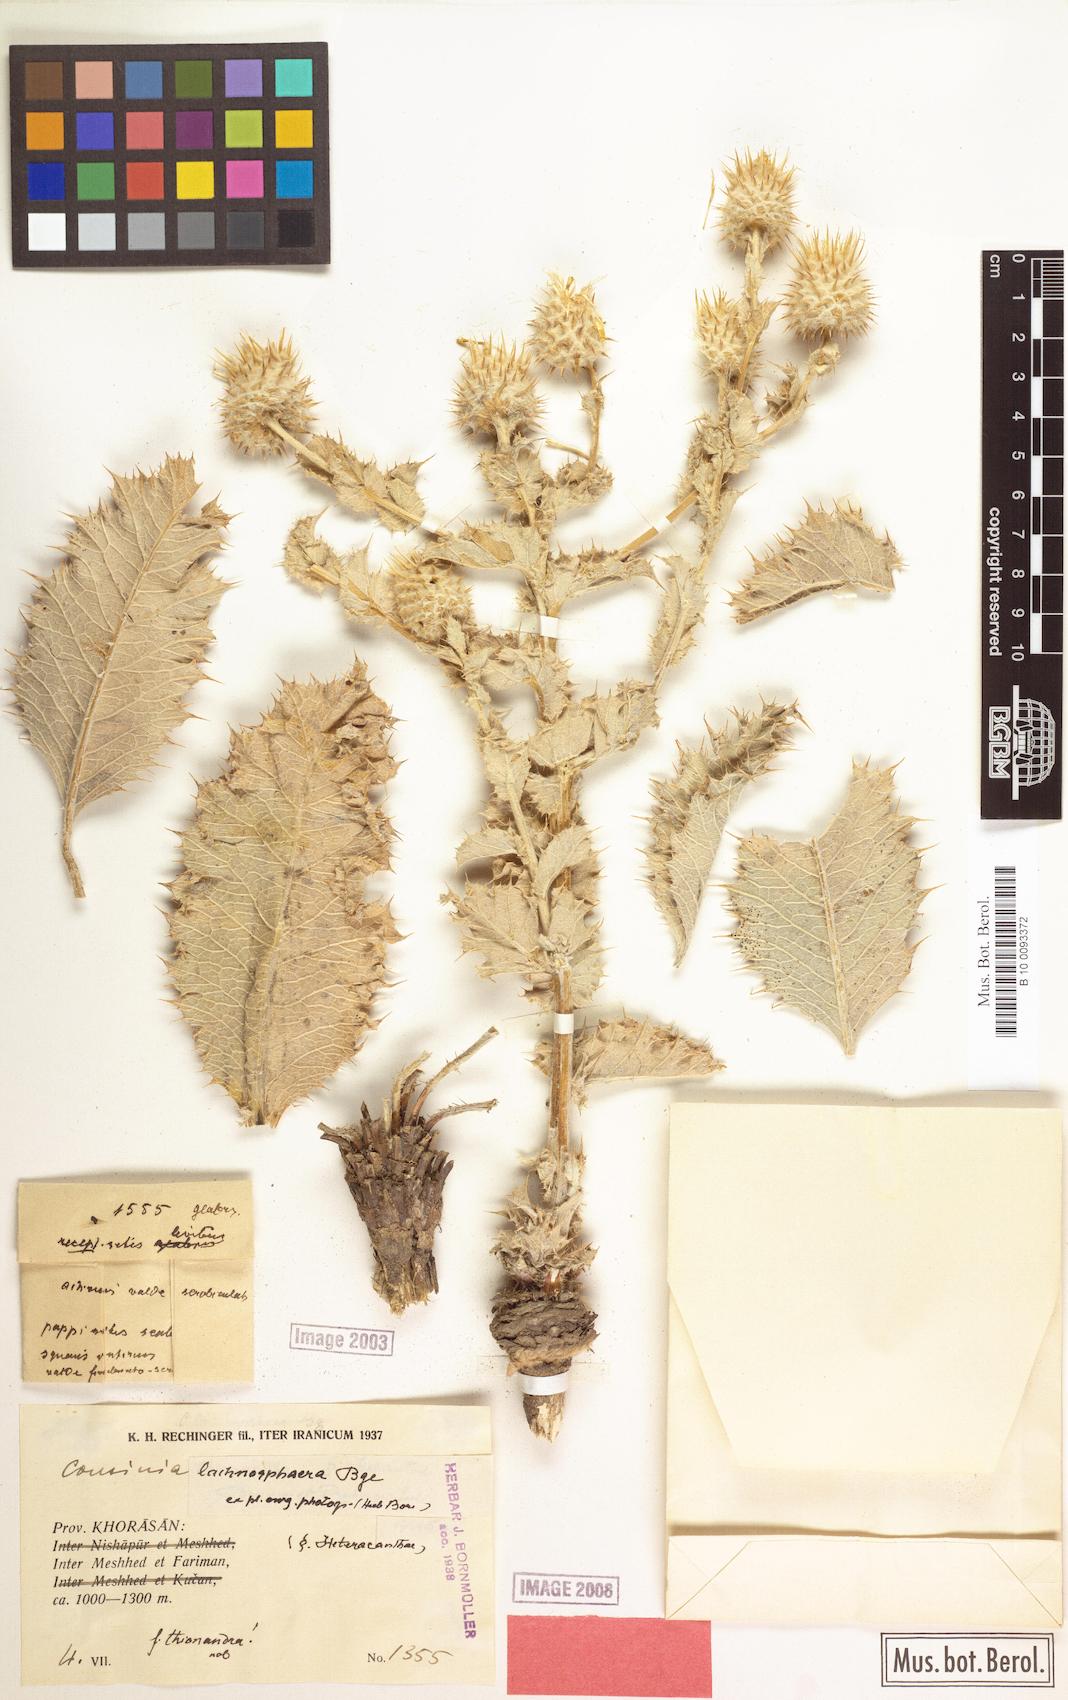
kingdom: Plantae
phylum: Tracheophyta
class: Magnoliopsida
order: Asterales
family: Asteraceae
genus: Cousinia
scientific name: Cousinia lachnosphaera
